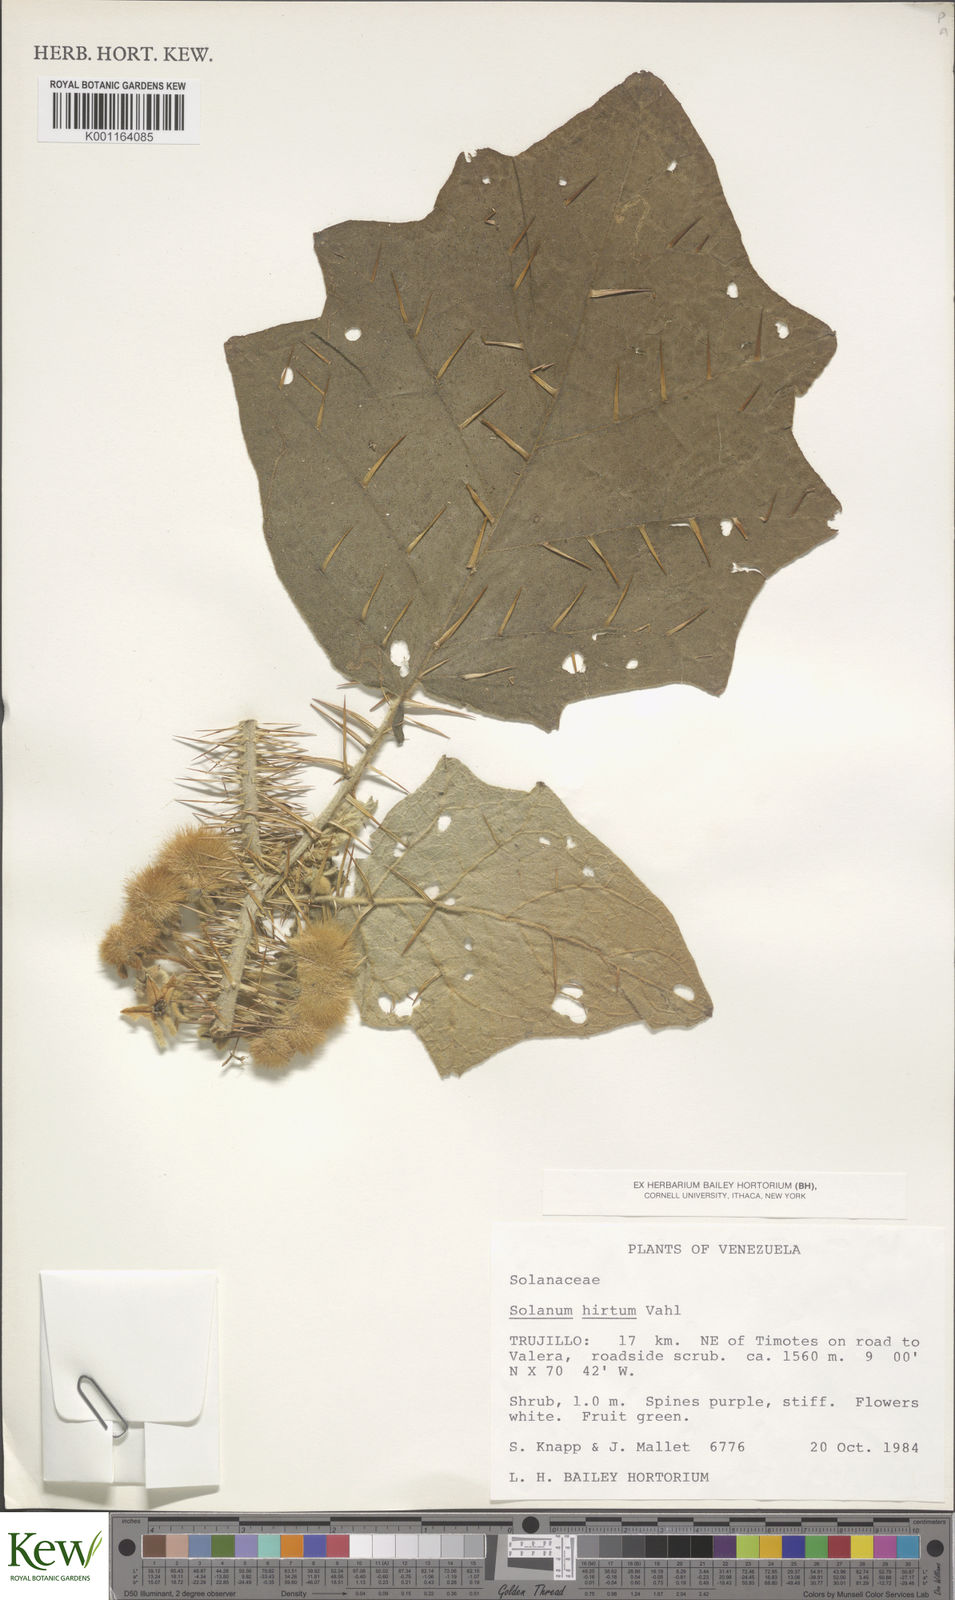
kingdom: Plantae
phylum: Tracheophyta
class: Magnoliopsida
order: Solanales
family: Solanaceae
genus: Solanum
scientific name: Solanum hirtum
